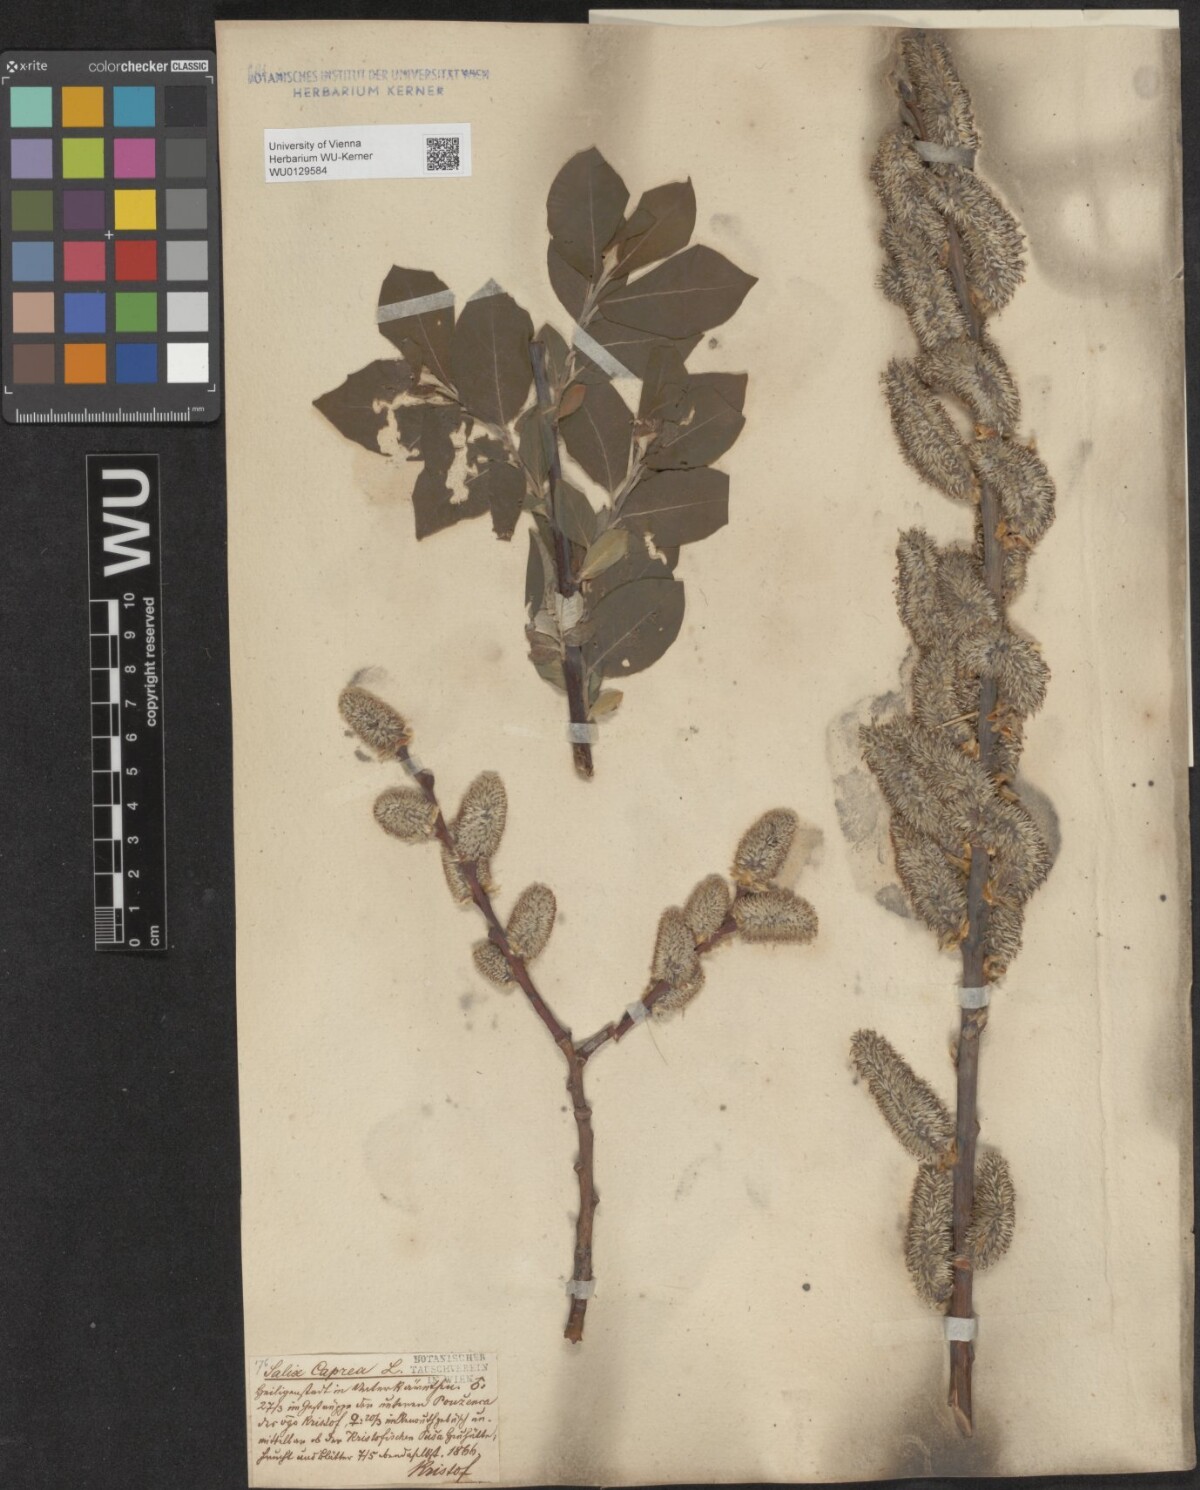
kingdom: Plantae
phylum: Tracheophyta
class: Magnoliopsida
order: Malpighiales
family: Salicaceae
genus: Salix
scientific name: Salix caprea
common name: Goat willow
